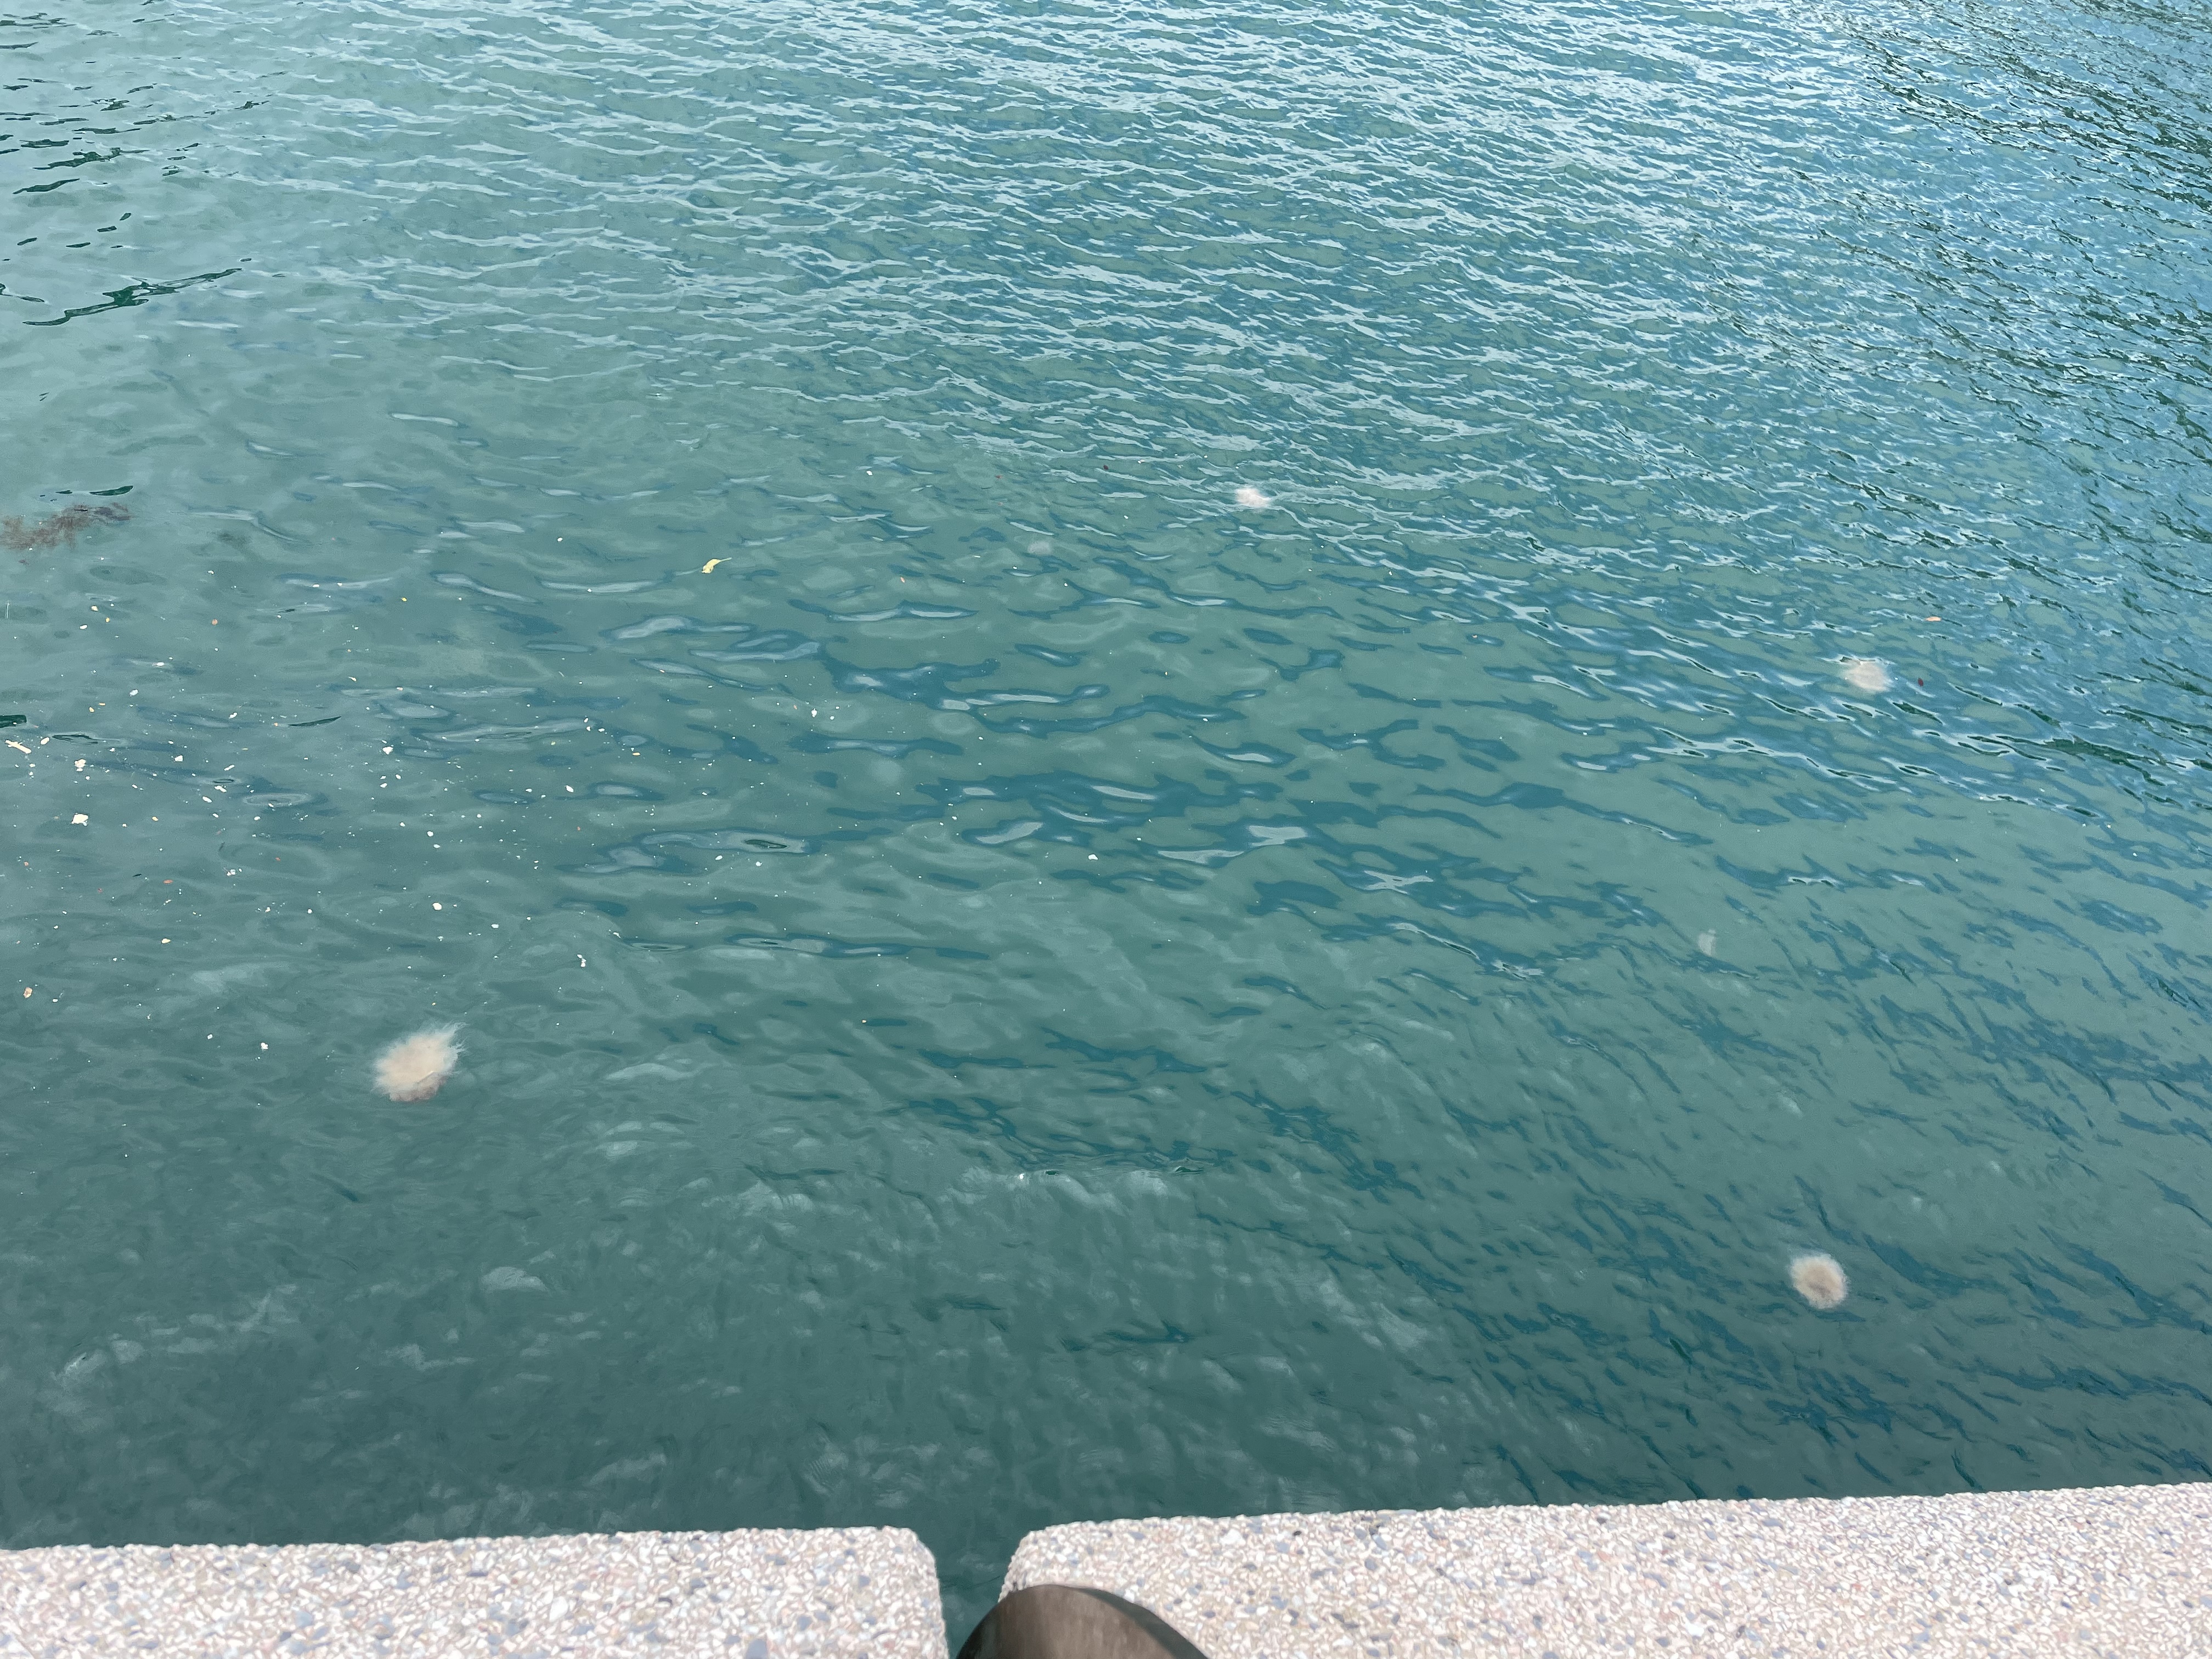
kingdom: Animalia
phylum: Cnidaria
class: Scyphozoa
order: Semaeostomeae
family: Cyaneidae
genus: Cyanea
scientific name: Cyanea nozakii
